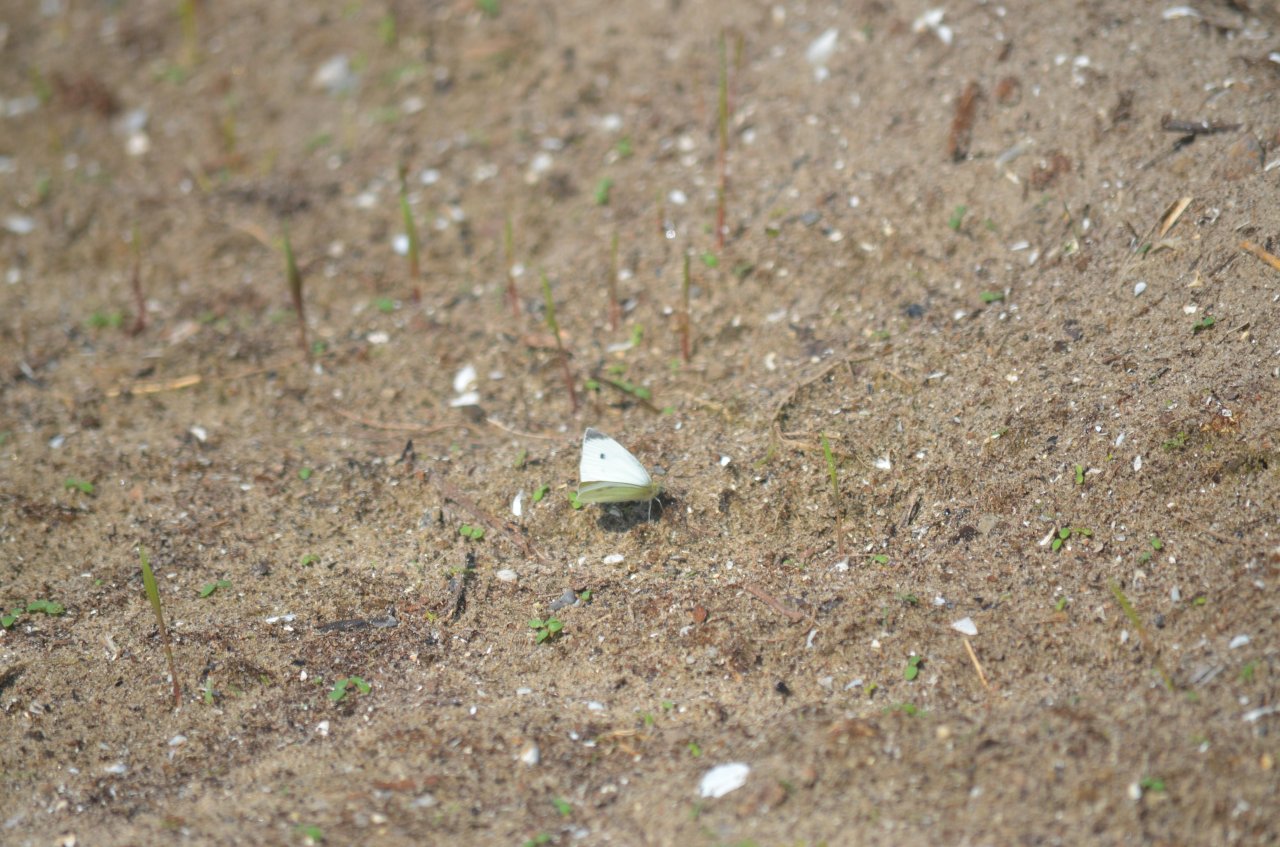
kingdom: Animalia
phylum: Arthropoda
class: Insecta
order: Lepidoptera
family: Pieridae
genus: Pieris
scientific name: Pieris rapae
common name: Cabbage White
